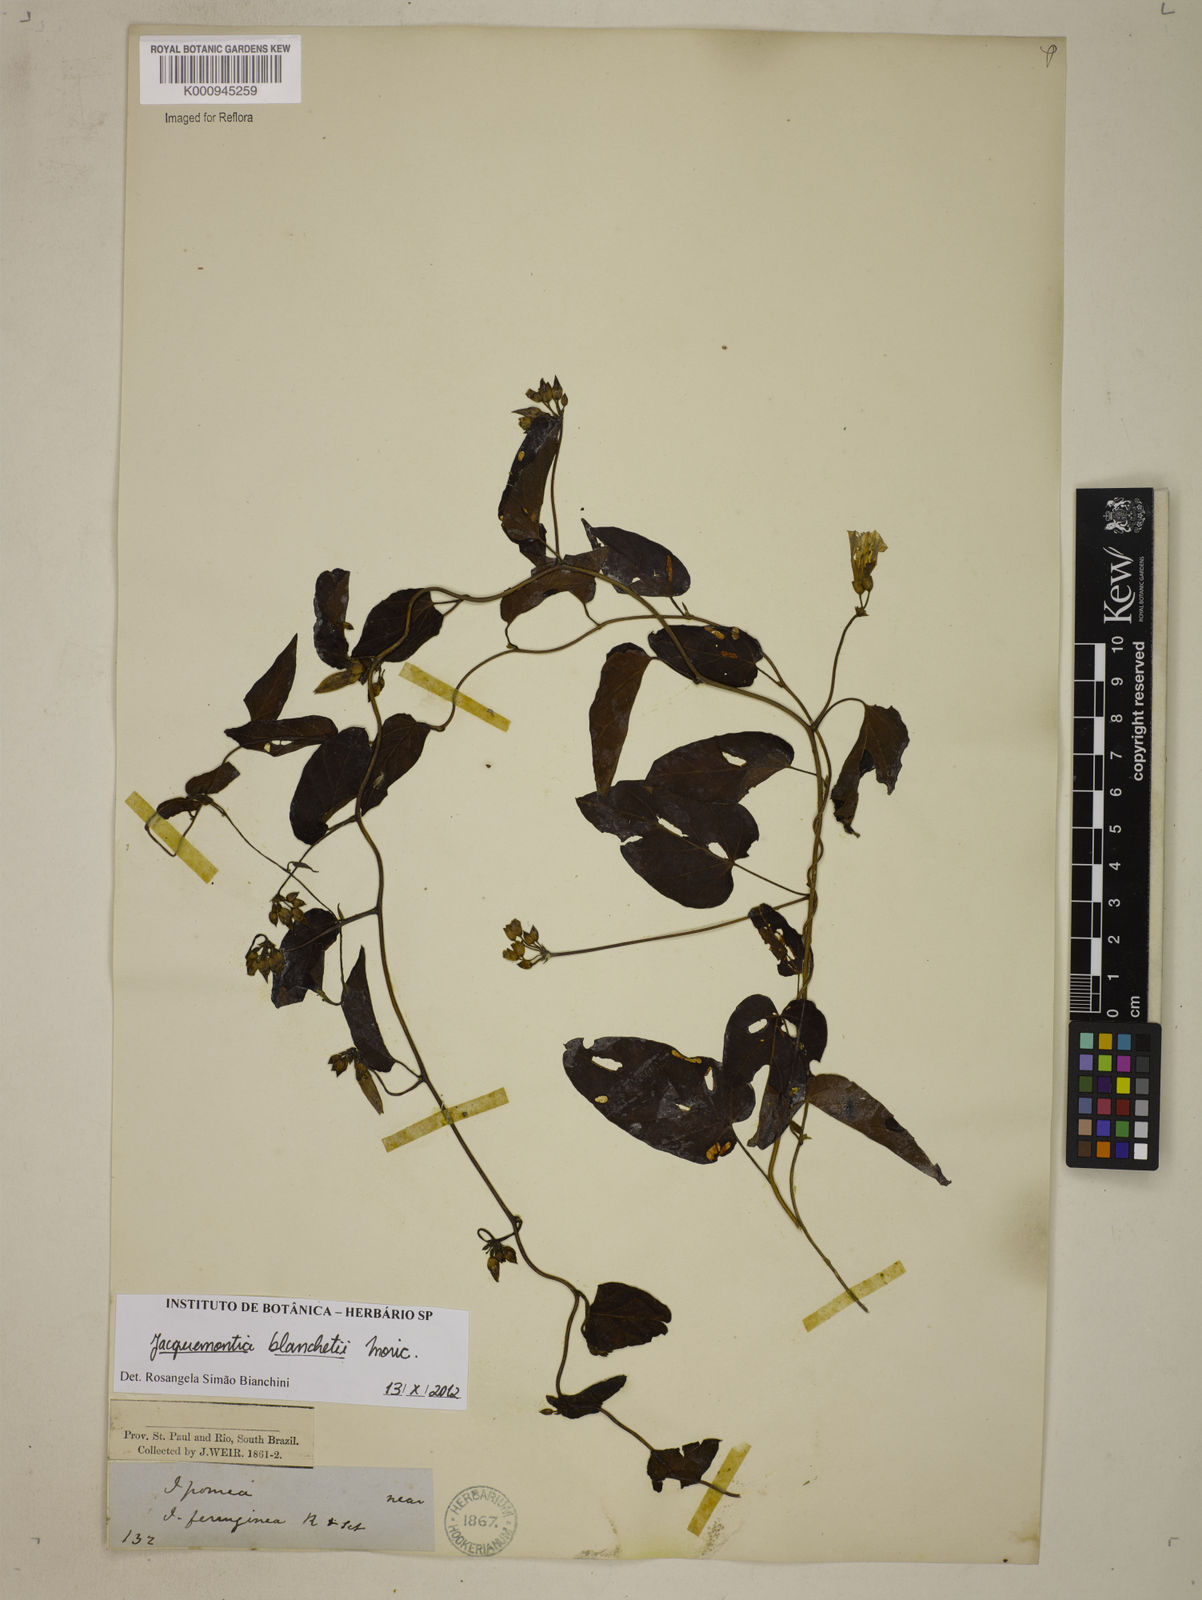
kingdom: Plantae
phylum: Tracheophyta
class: Magnoliopsida
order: Solanales
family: Convolvulaceae
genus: Jacquemontia
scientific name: Jacquemontia blanchetii
